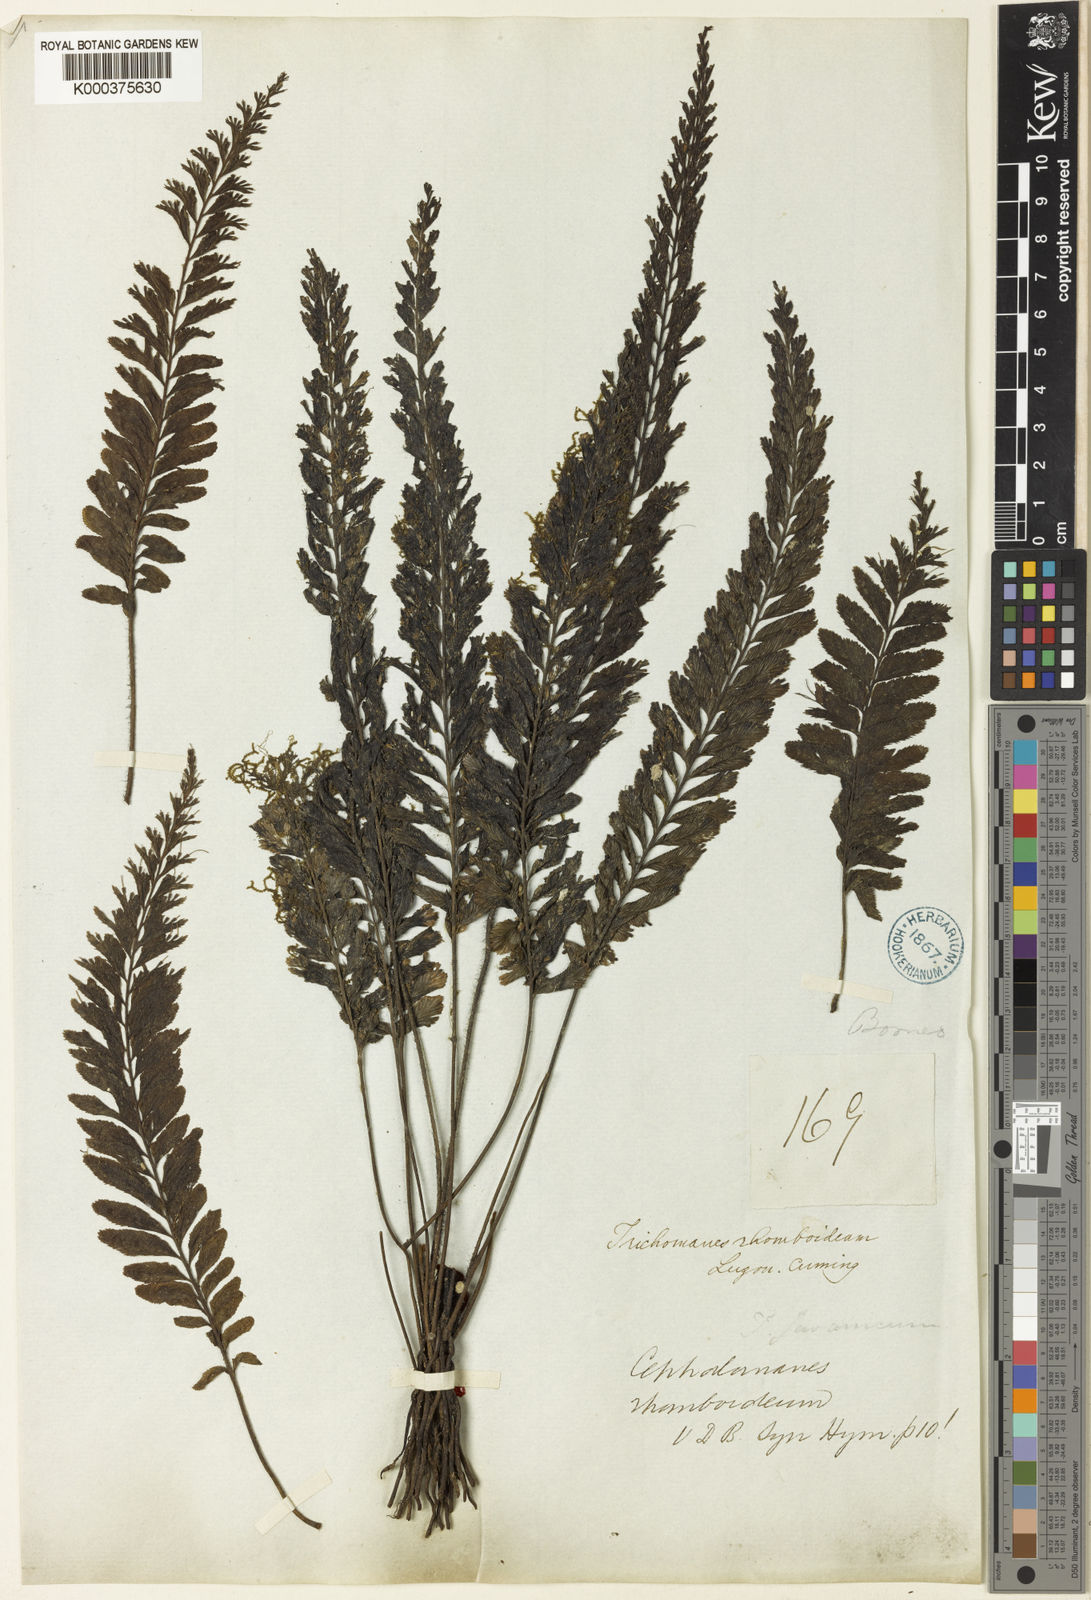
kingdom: Plantae
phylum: Tracheophyta
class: Polypodiopsida
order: Hymenophyllales
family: Hymenophyllaceae
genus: Cephalomanes
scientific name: Cephalomanes javanicum
